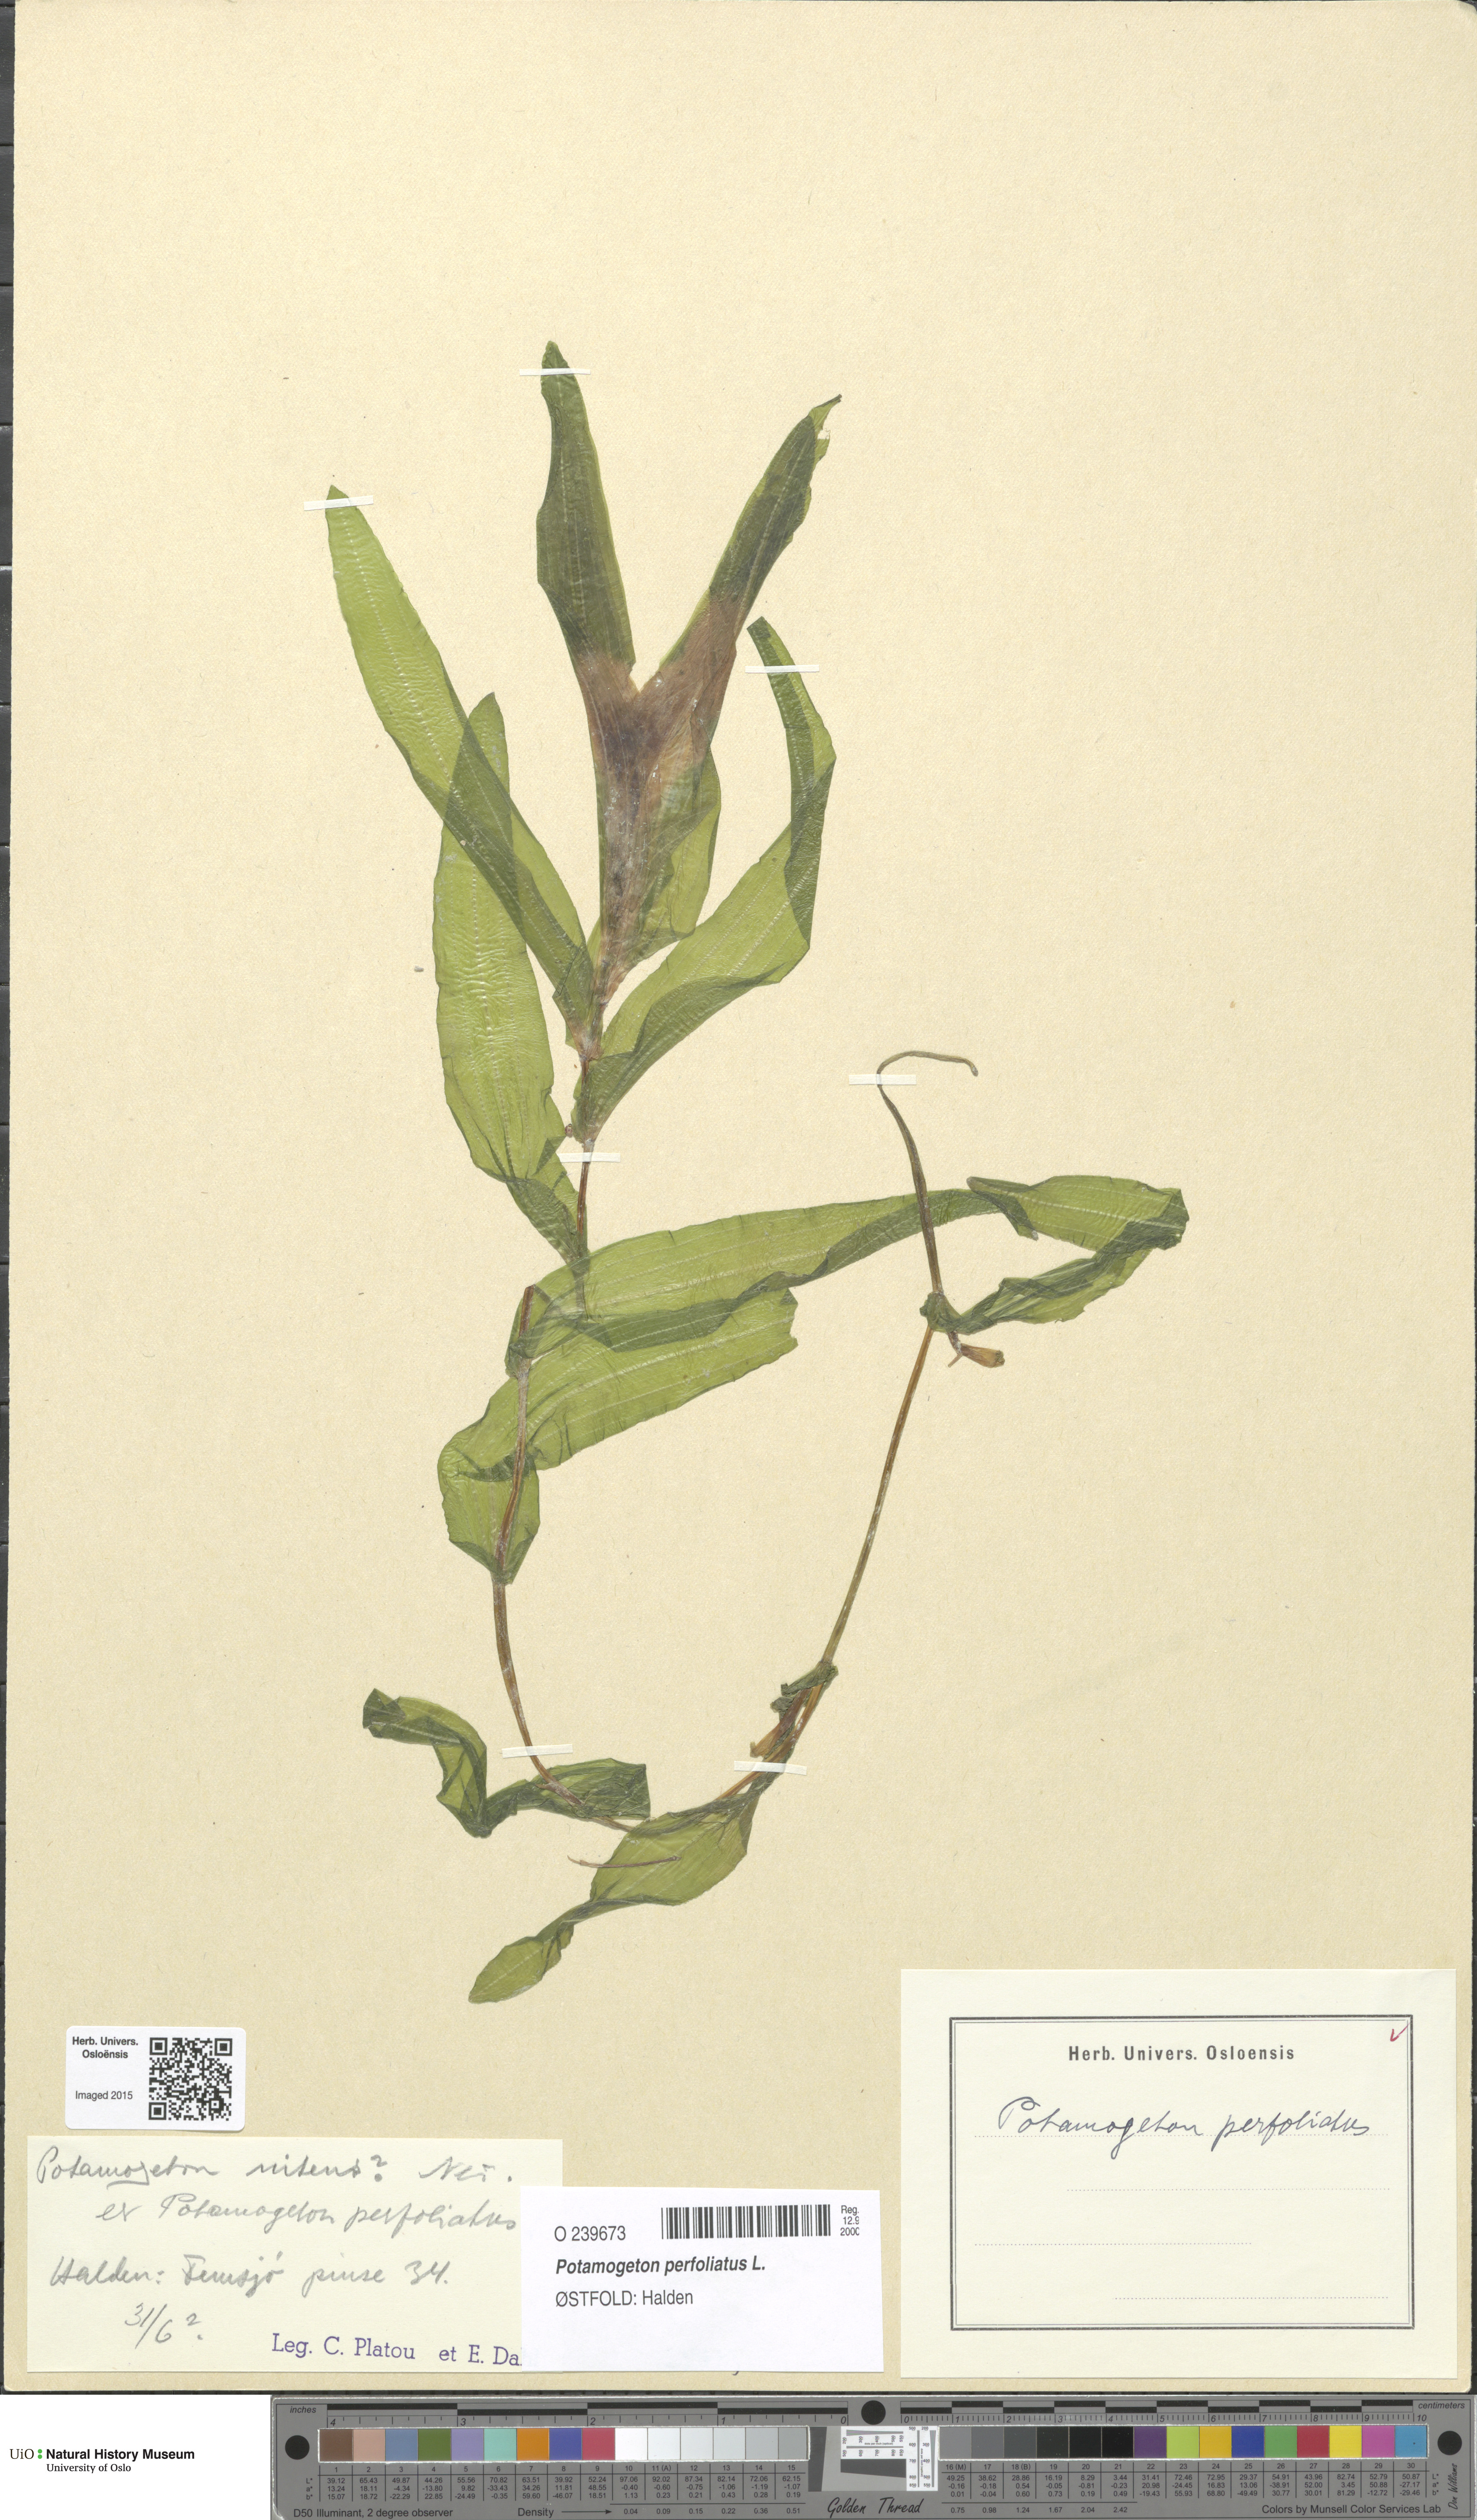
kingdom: Plantae
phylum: Tracheophyta
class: Liliopsida
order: Alismatales
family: Potamogetonaceae
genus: Potamogeton
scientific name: Potamogeton perfoliatus
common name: Perfoliate pondweed
